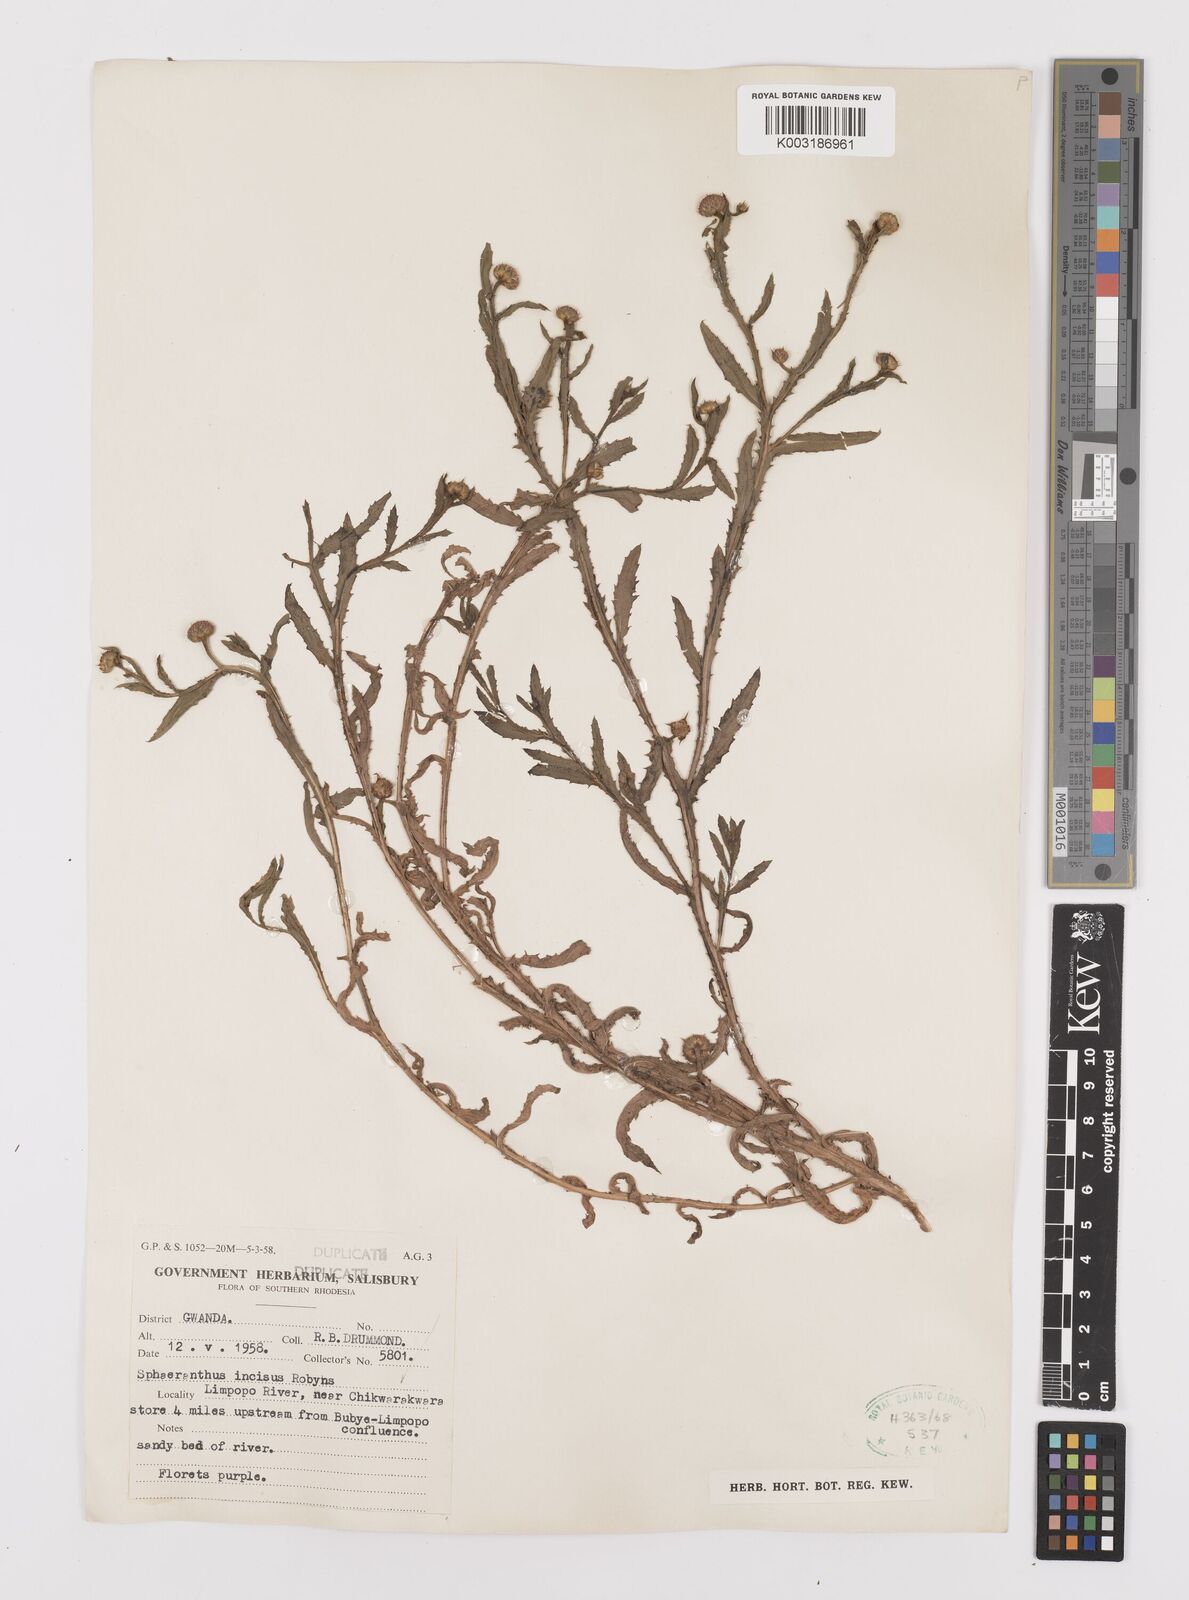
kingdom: Plantae
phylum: Tracheophyta
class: Magnoliopsida
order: Asterales
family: Asteraceae
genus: Sphaeranthus
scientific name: Sphaeranthus peduncularis
